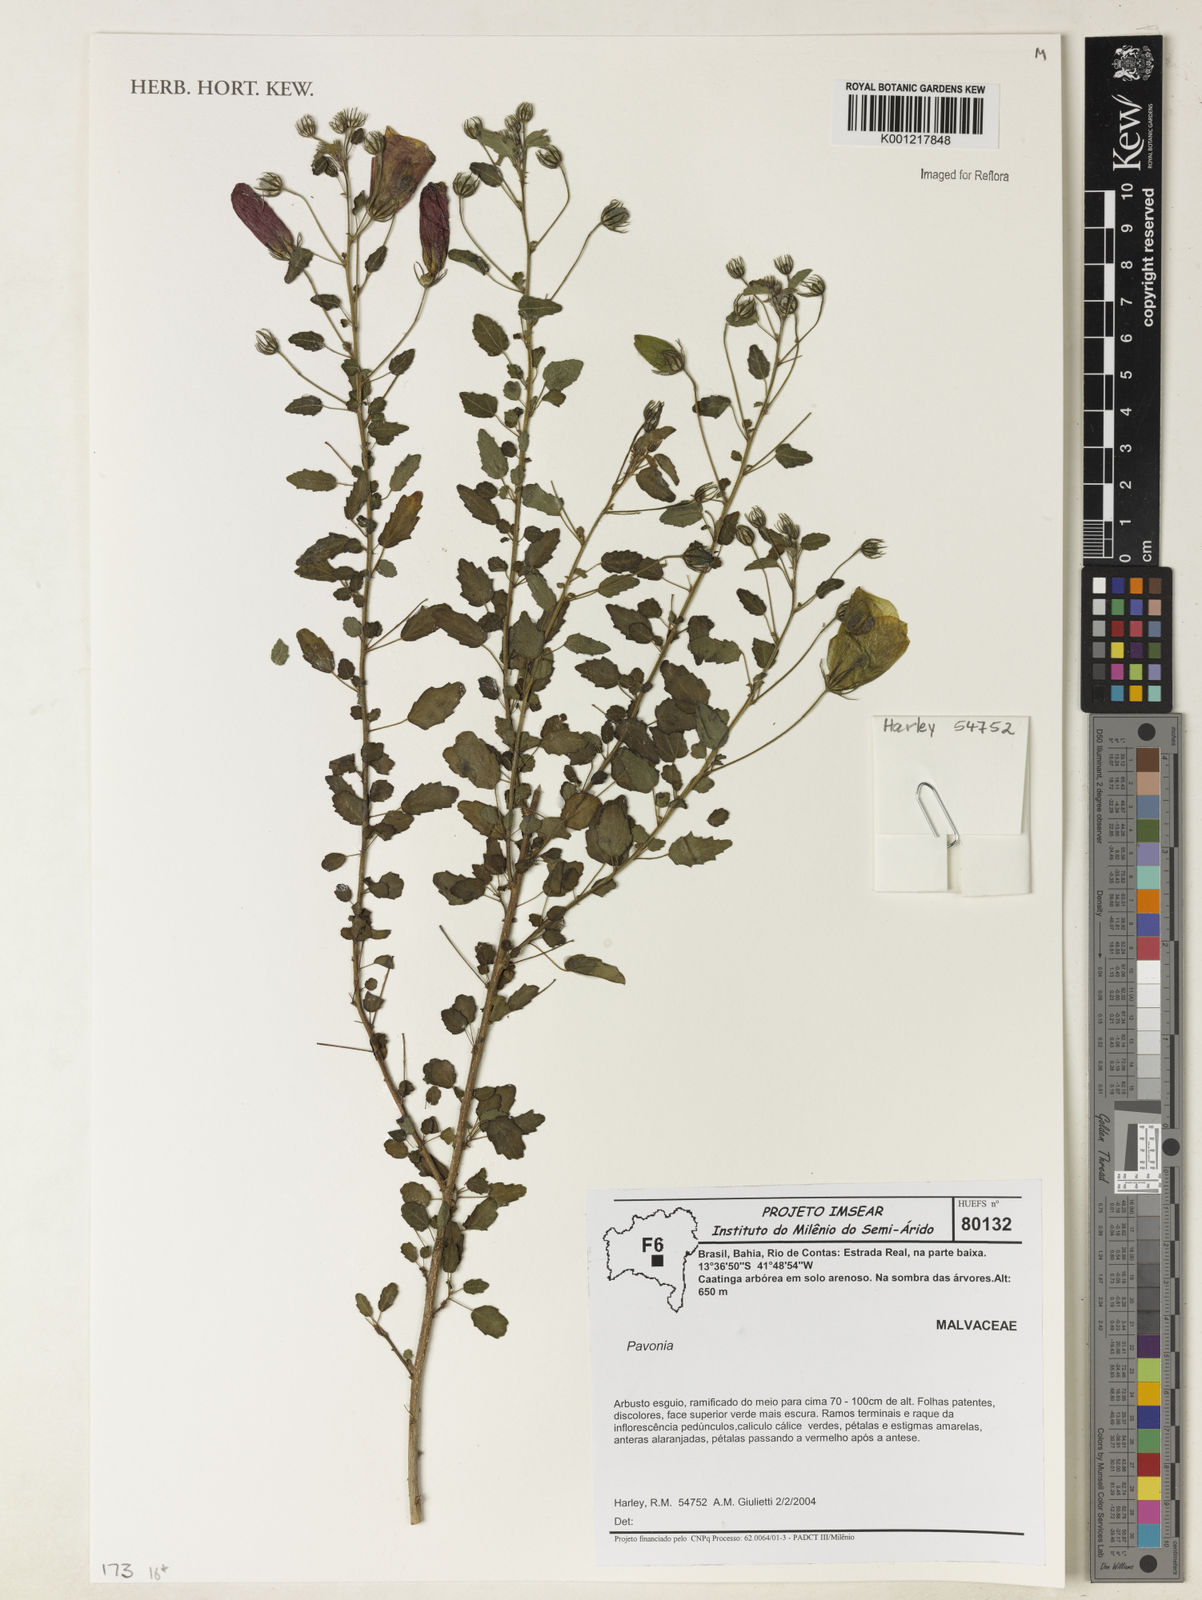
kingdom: Plantae
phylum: Tracheophyta
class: Magnoliopsida
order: Malvales
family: Malvaceae
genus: Pavonia
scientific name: Pavonia
